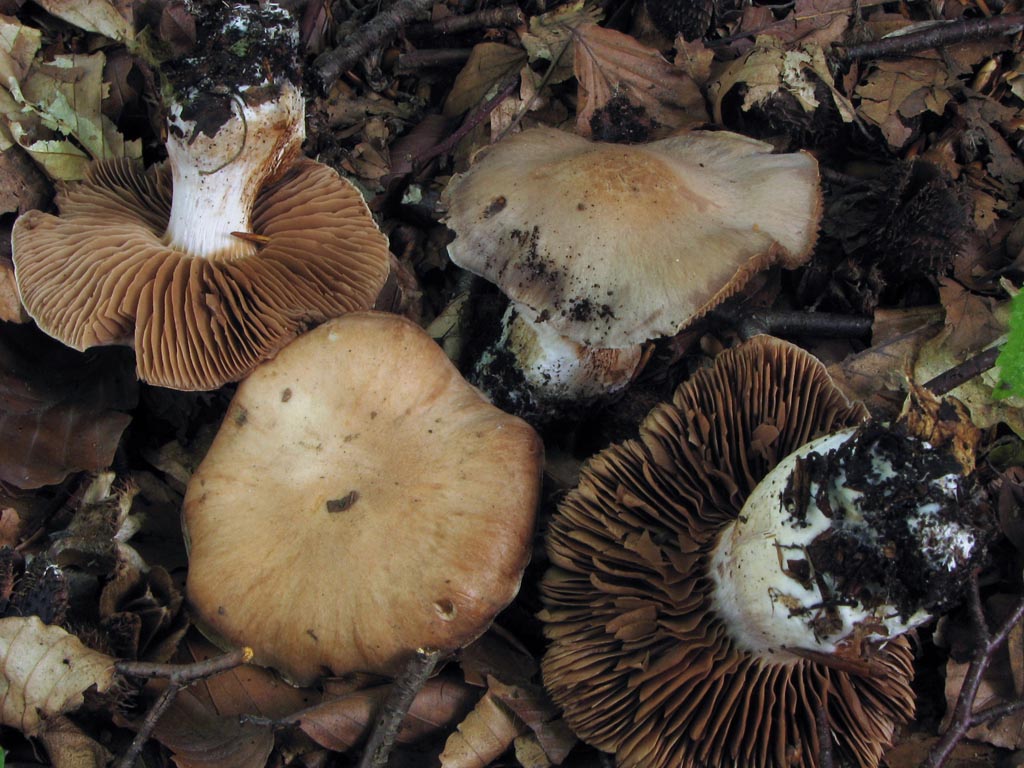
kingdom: Fungi
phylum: Basidiomycota
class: Agaricomycetes
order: Agaricales
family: Cortinariaceae
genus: Cortinarius
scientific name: Cortinarius turgidus
